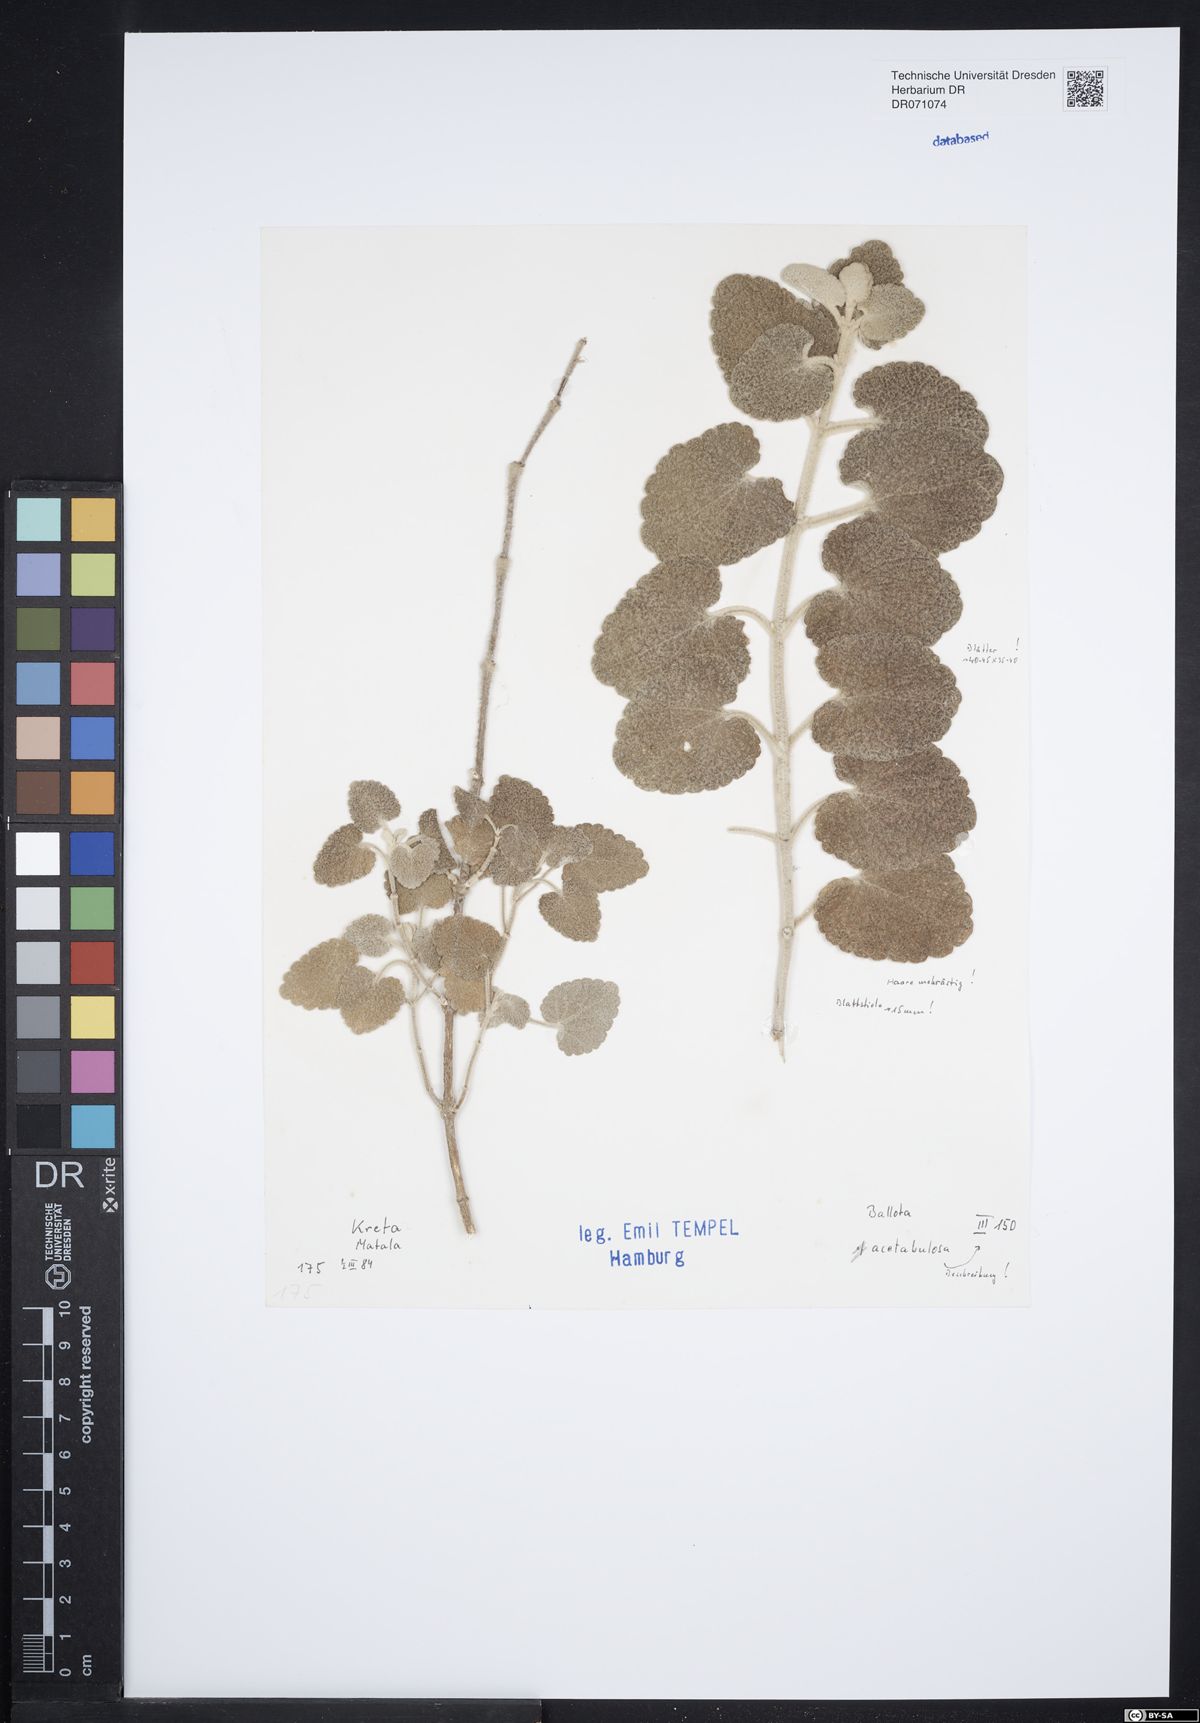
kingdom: Plantae
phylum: Tracheophyta
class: Magnoliopsida
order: Lamiales
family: Lamiaceae
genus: Pseudodictamnus
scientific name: Pseudodictamnus acetabulosus
